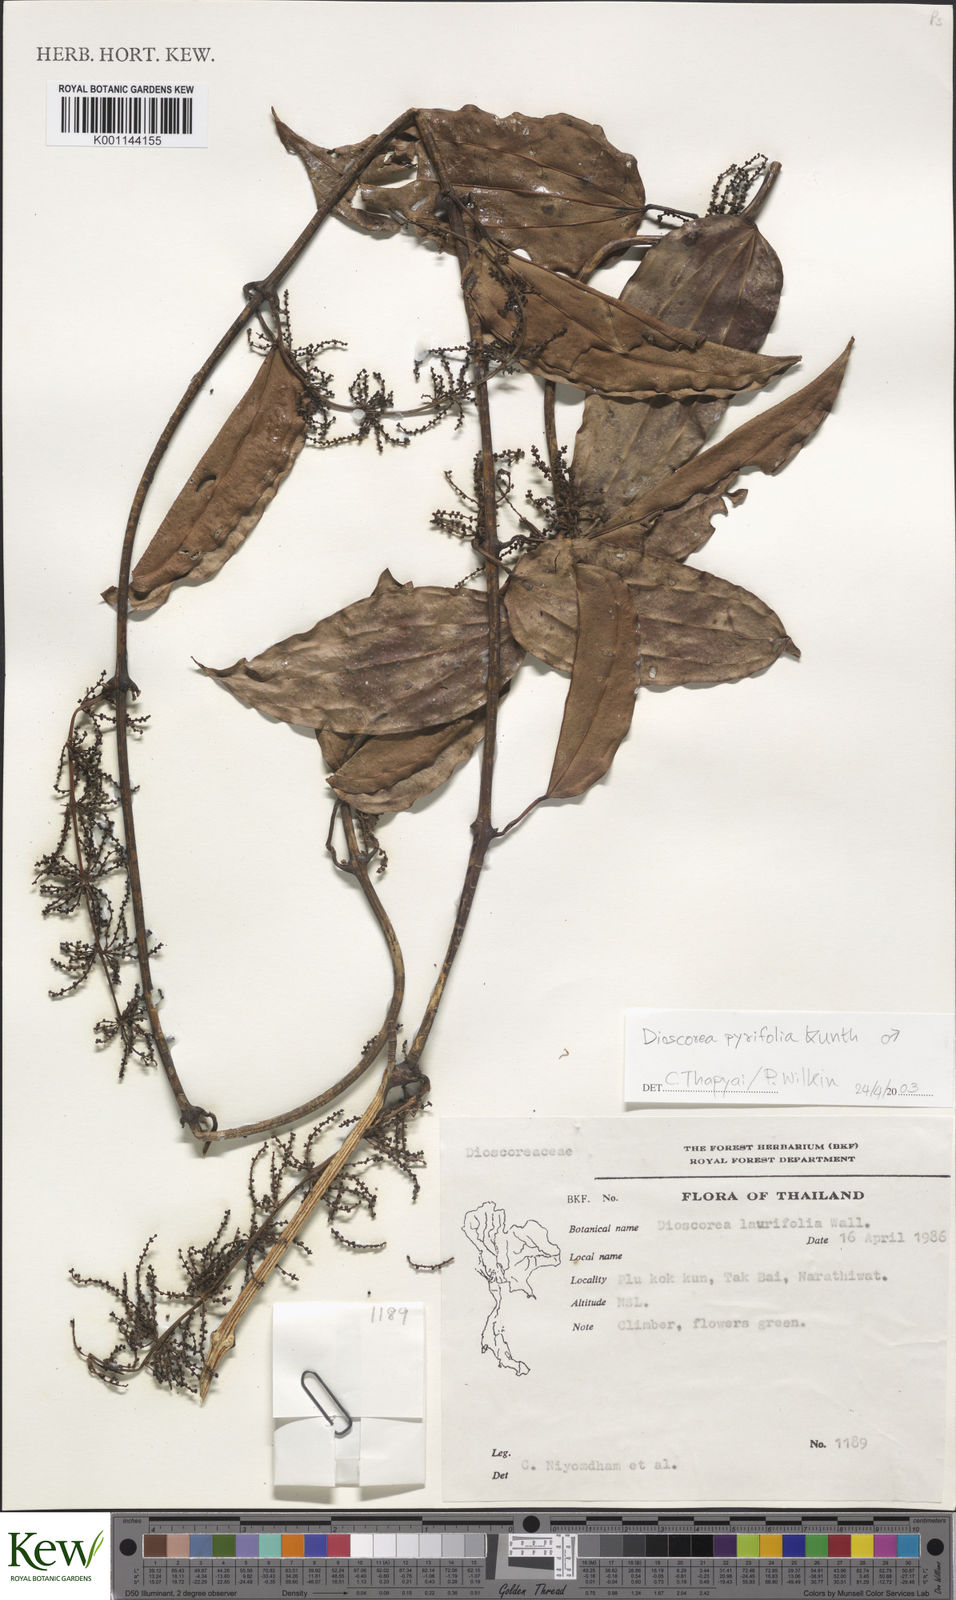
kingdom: Plantae
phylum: Tracheophyta
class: Liliopsida
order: Dioscoreales
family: Dioscoreaceae
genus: Dioscorea
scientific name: Dioscorea pyrifolia
